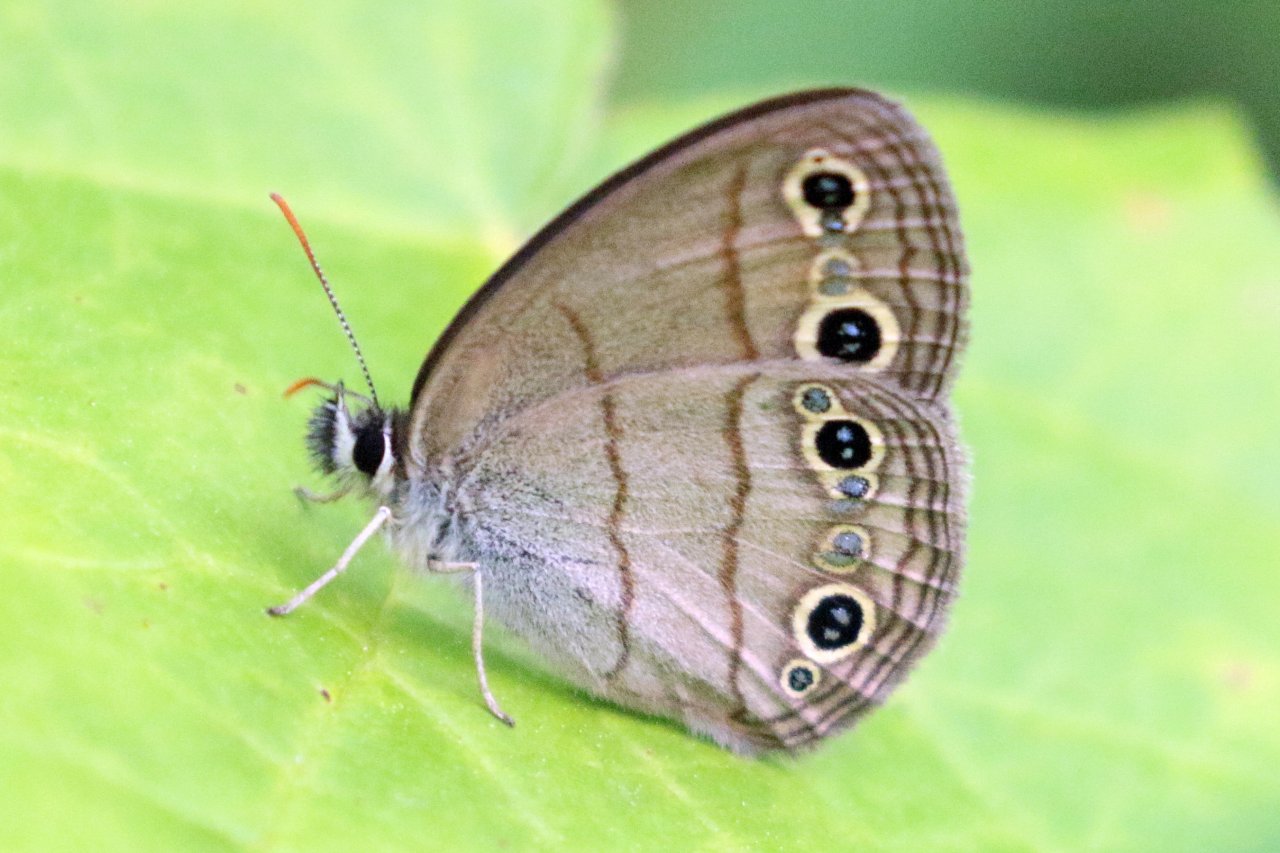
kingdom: Animalia
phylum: Arthropoda
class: Insecta
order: Lepidoptera
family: Nymphalidae
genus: Euptychia
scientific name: Euptychia cymela
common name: Little Wood Satyr
